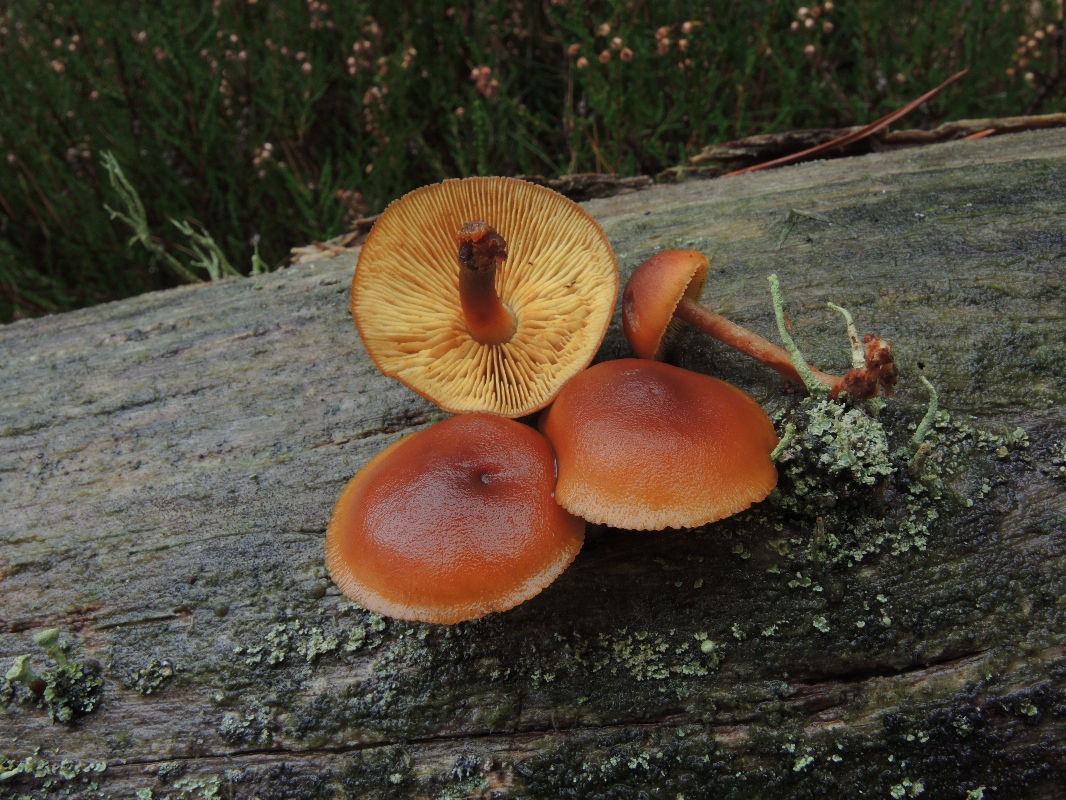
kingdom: Fungi
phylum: Basidiomycota
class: Agaricomycetes
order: Agaricales
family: Hymenogastraceae
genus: Gymnopilus
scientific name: Gymnopilus picreus
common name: puklet flammehat
